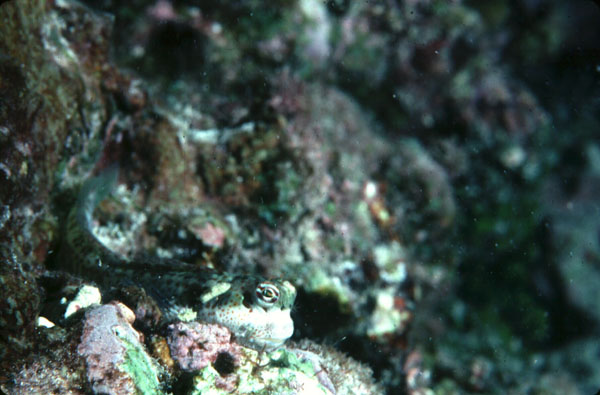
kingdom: Animalia
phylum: Chordata
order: Perciformes
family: Blenniidae
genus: Blenniella
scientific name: Blenniella chrysospilos
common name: Orange-spotted blenny
